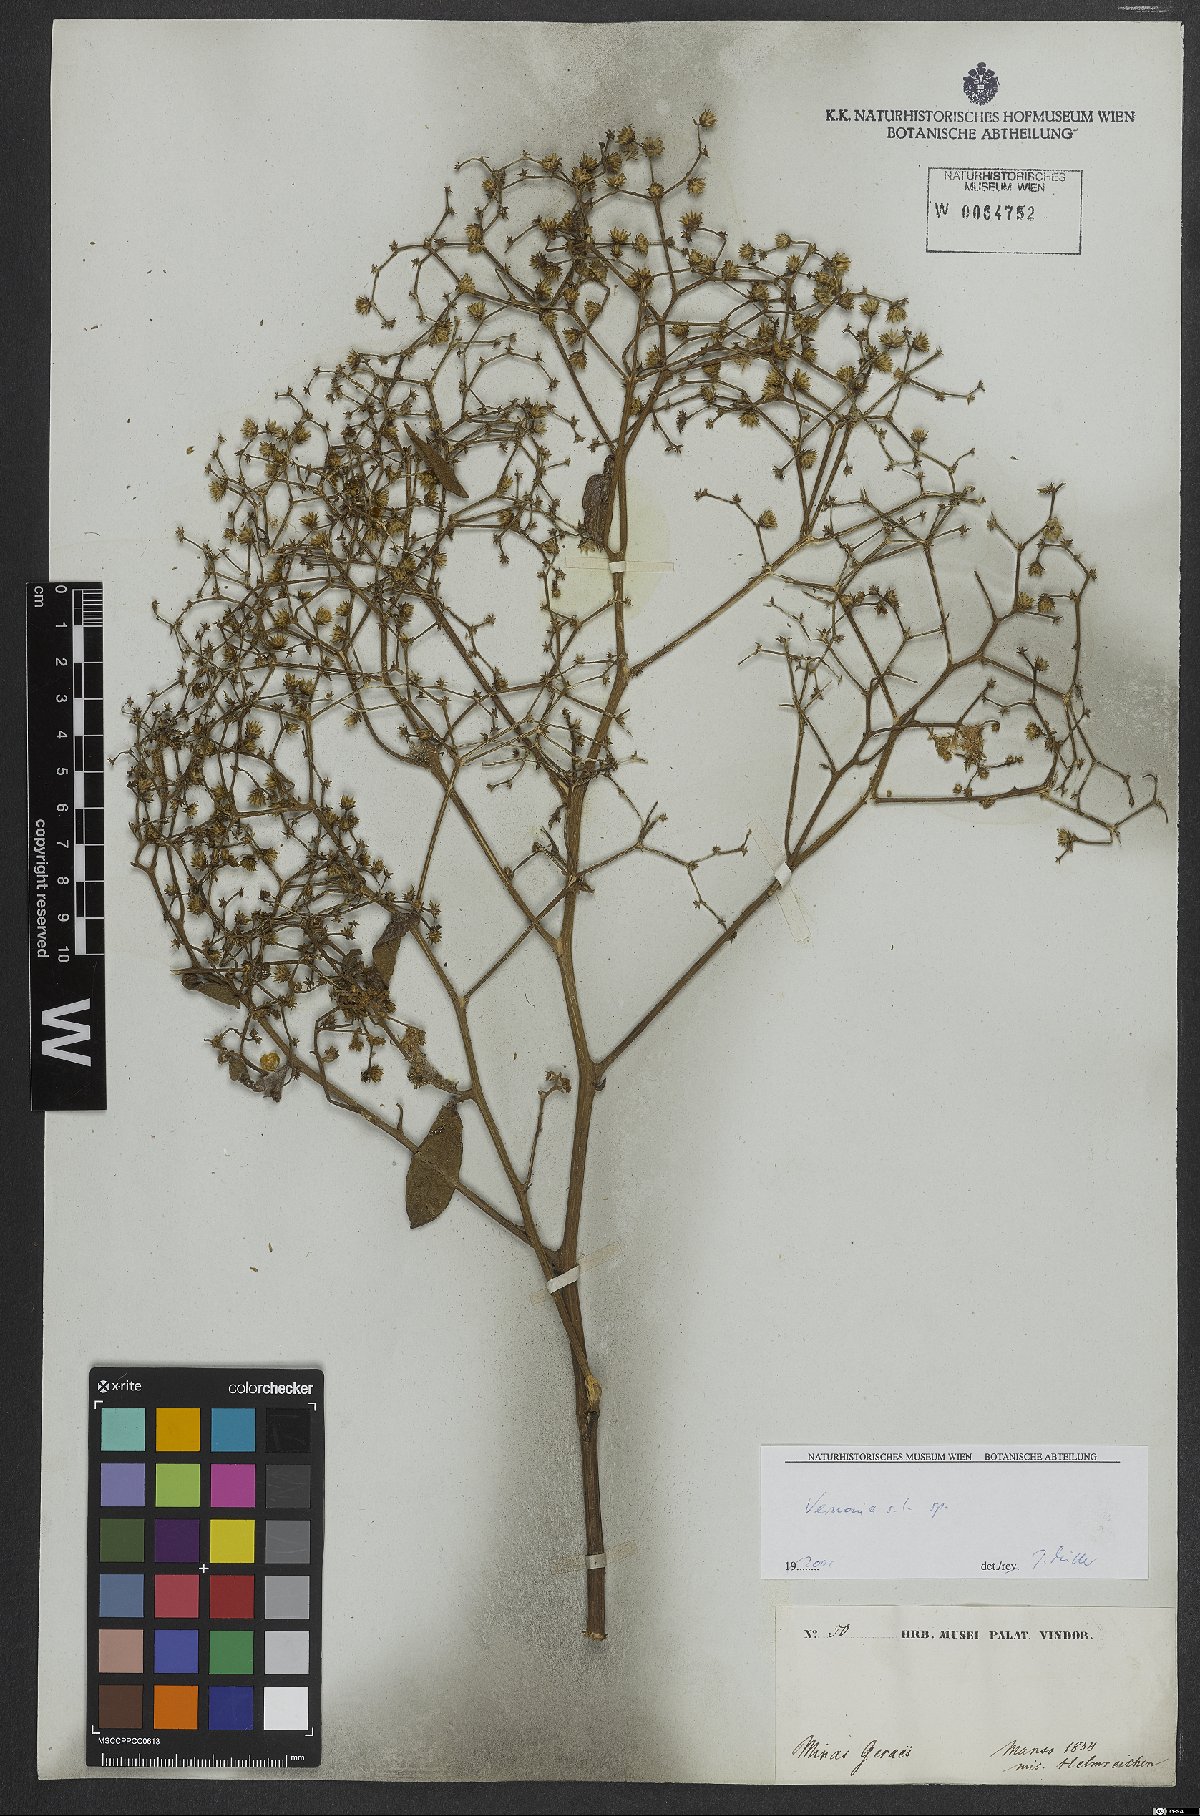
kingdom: Plantae
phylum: Tracheophyta
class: Magnoliopsida
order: Asterales
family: Asteraceae
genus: Vernonia
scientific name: Vernonia
